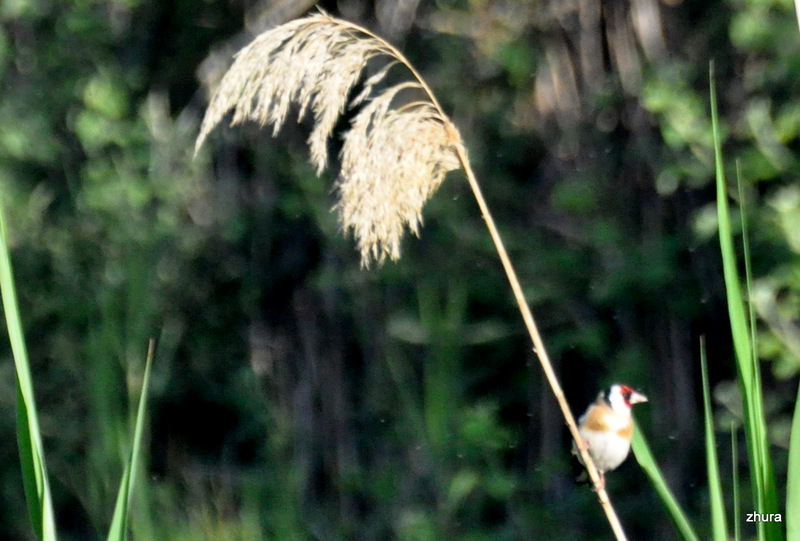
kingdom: Animalia
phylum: Chordata
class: Aves
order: Passeriformes
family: Fringillidae
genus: Carduelis
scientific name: Carduelis carduelis
